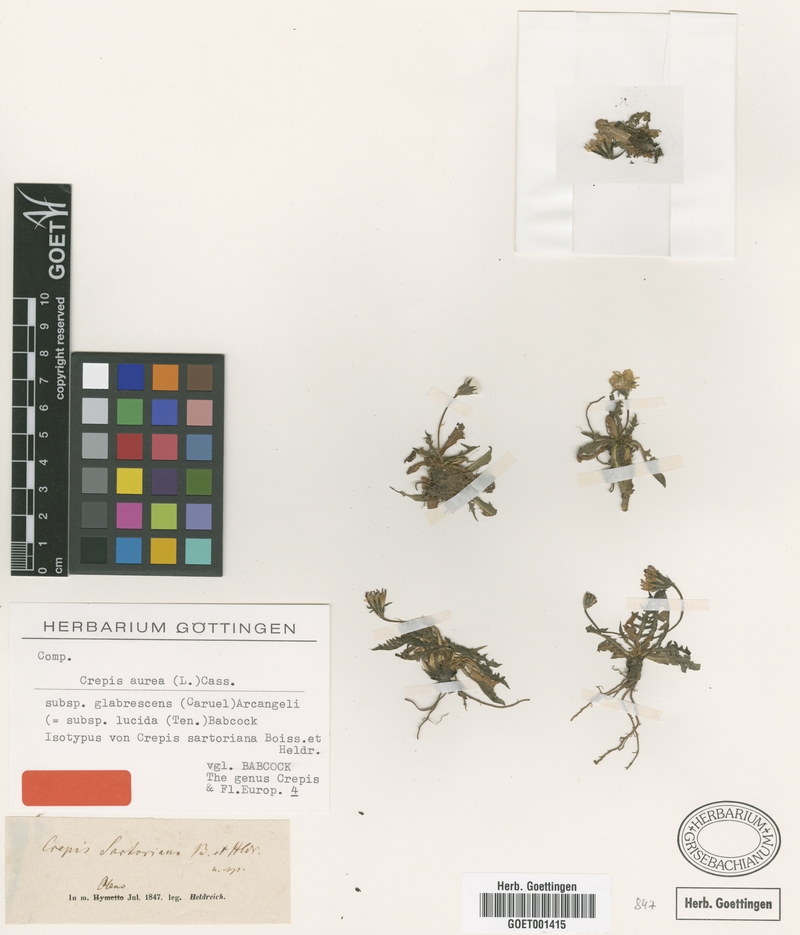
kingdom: Plantae
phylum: Tracheophyta
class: Magnoliopsida
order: Asterales
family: Asteraceae
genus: Crepis
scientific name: Crepis aurea
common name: Golden hawk's-beard
